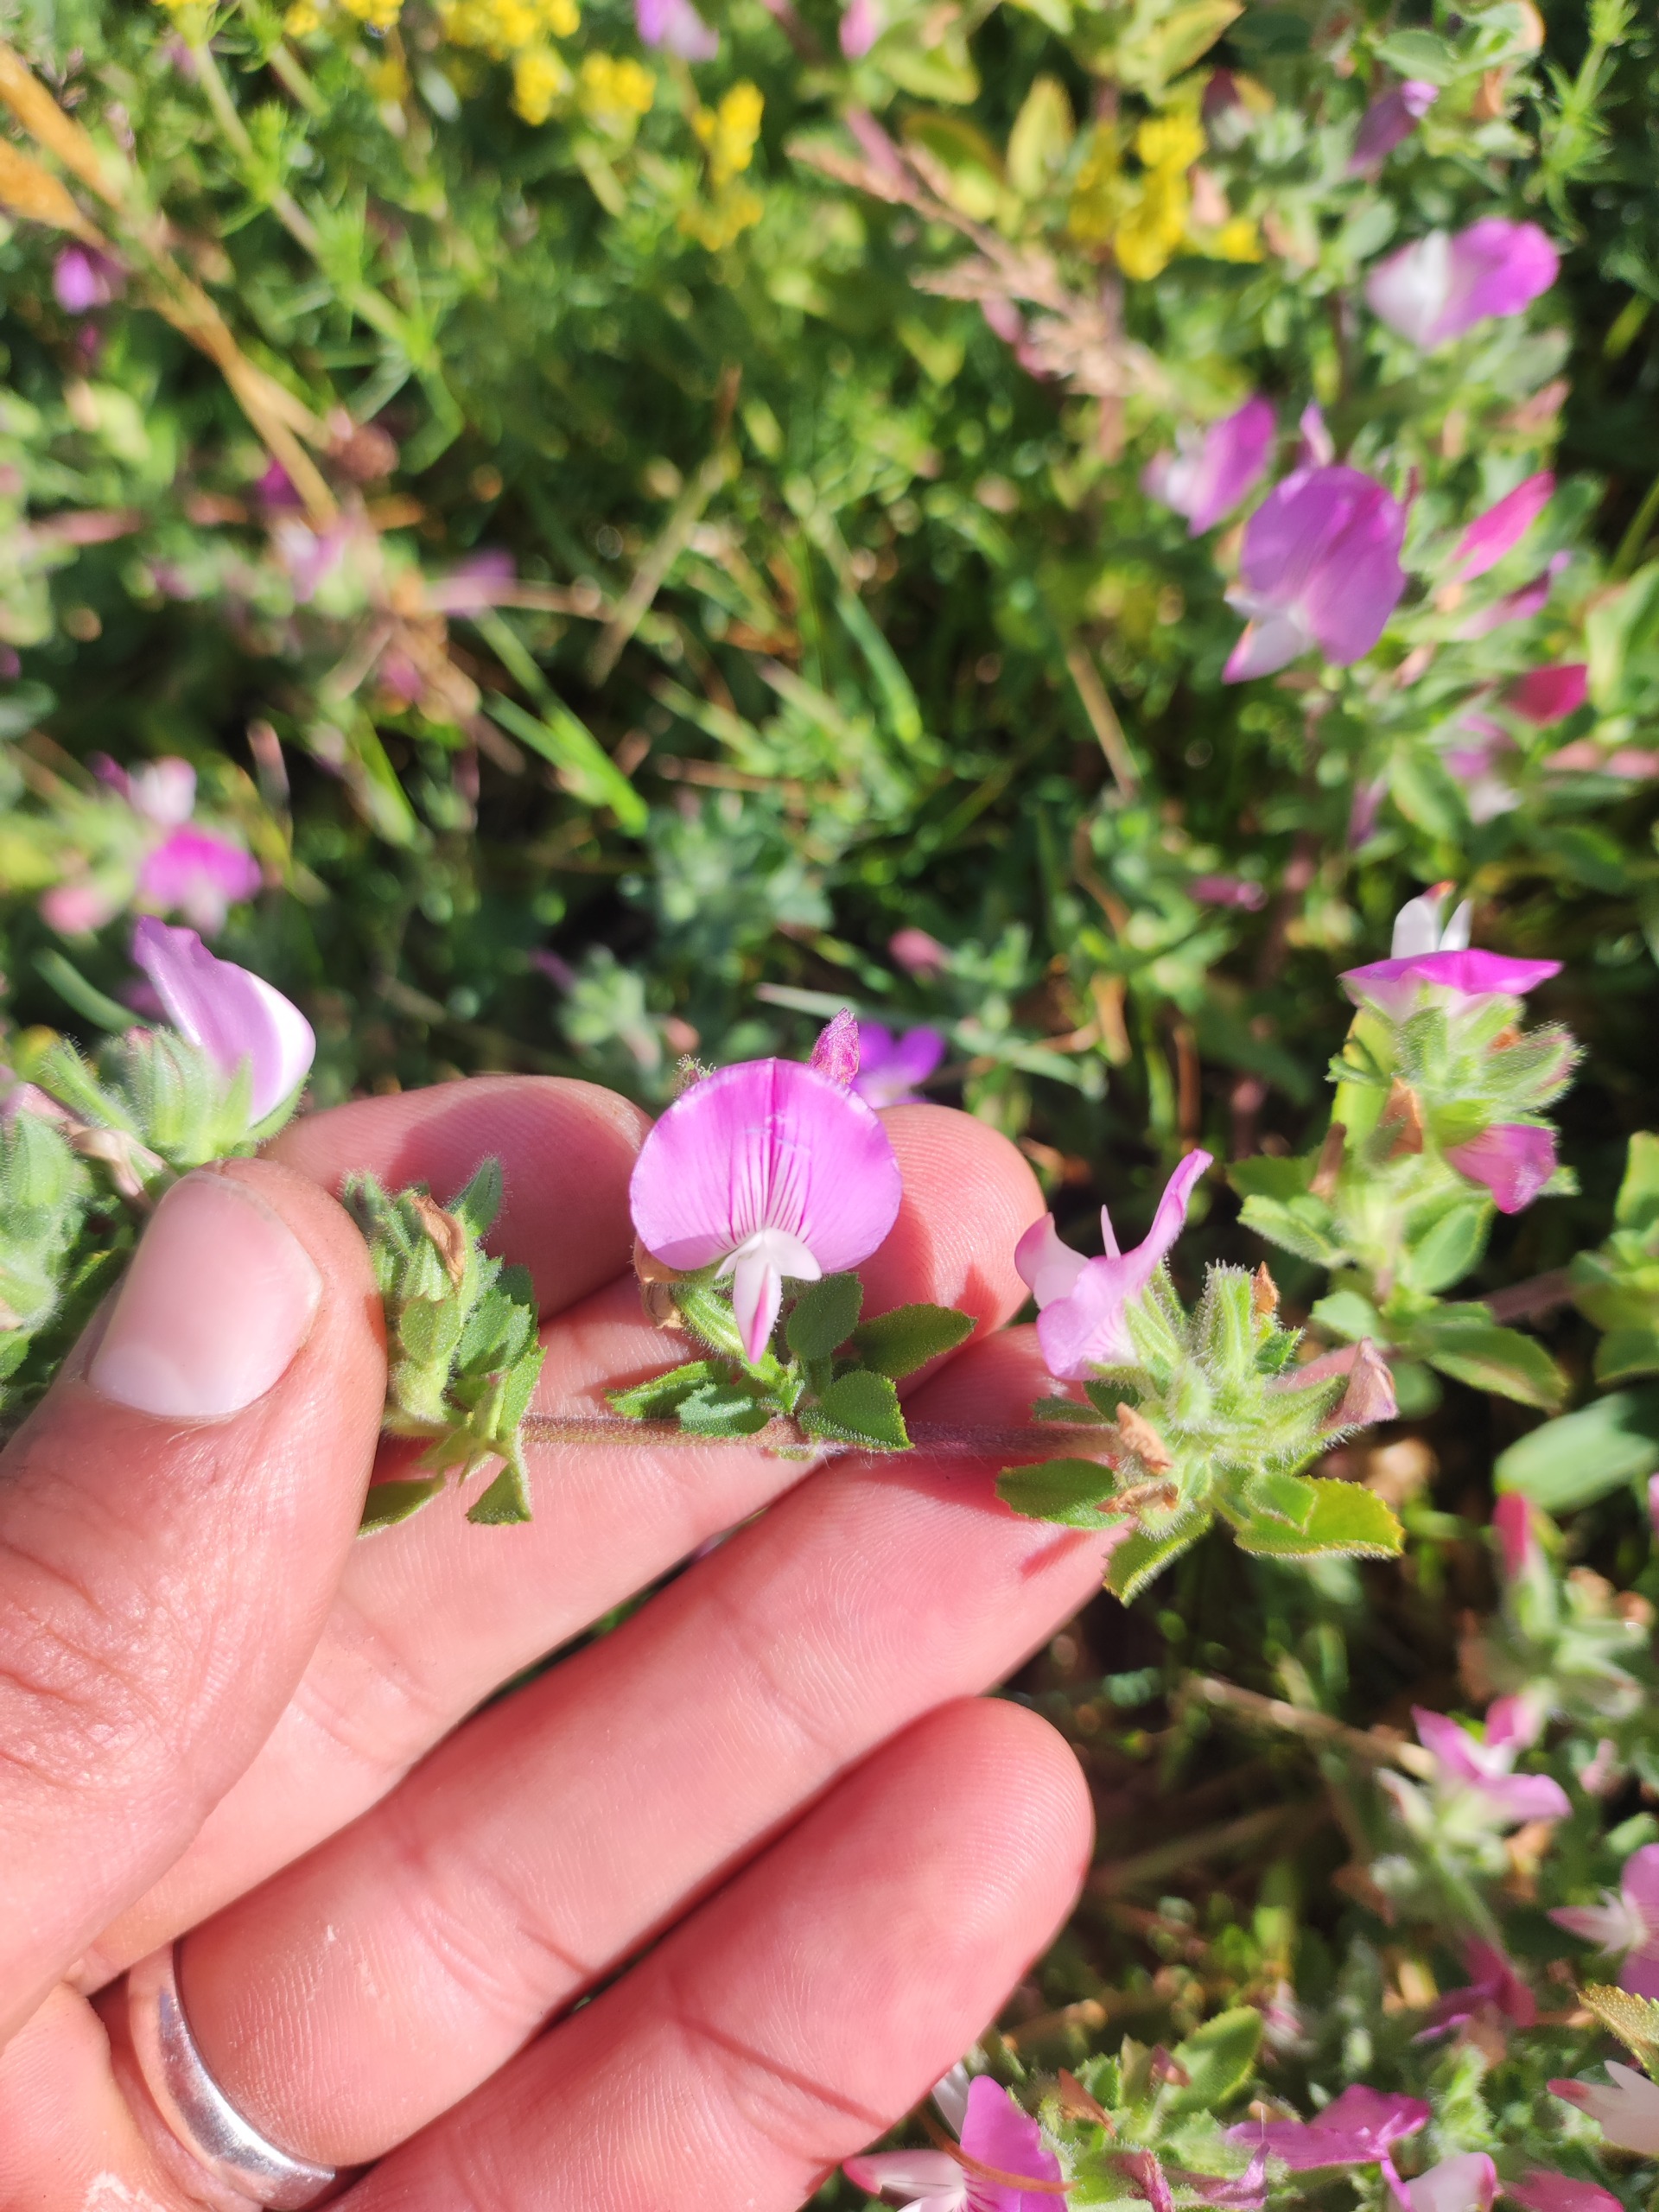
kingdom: Plantae
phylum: Tracheophyta
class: Magnoliopsida
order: Fabales
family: Fabaceae
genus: Ononis
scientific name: Ononis spinosa
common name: Mark-krageklo
